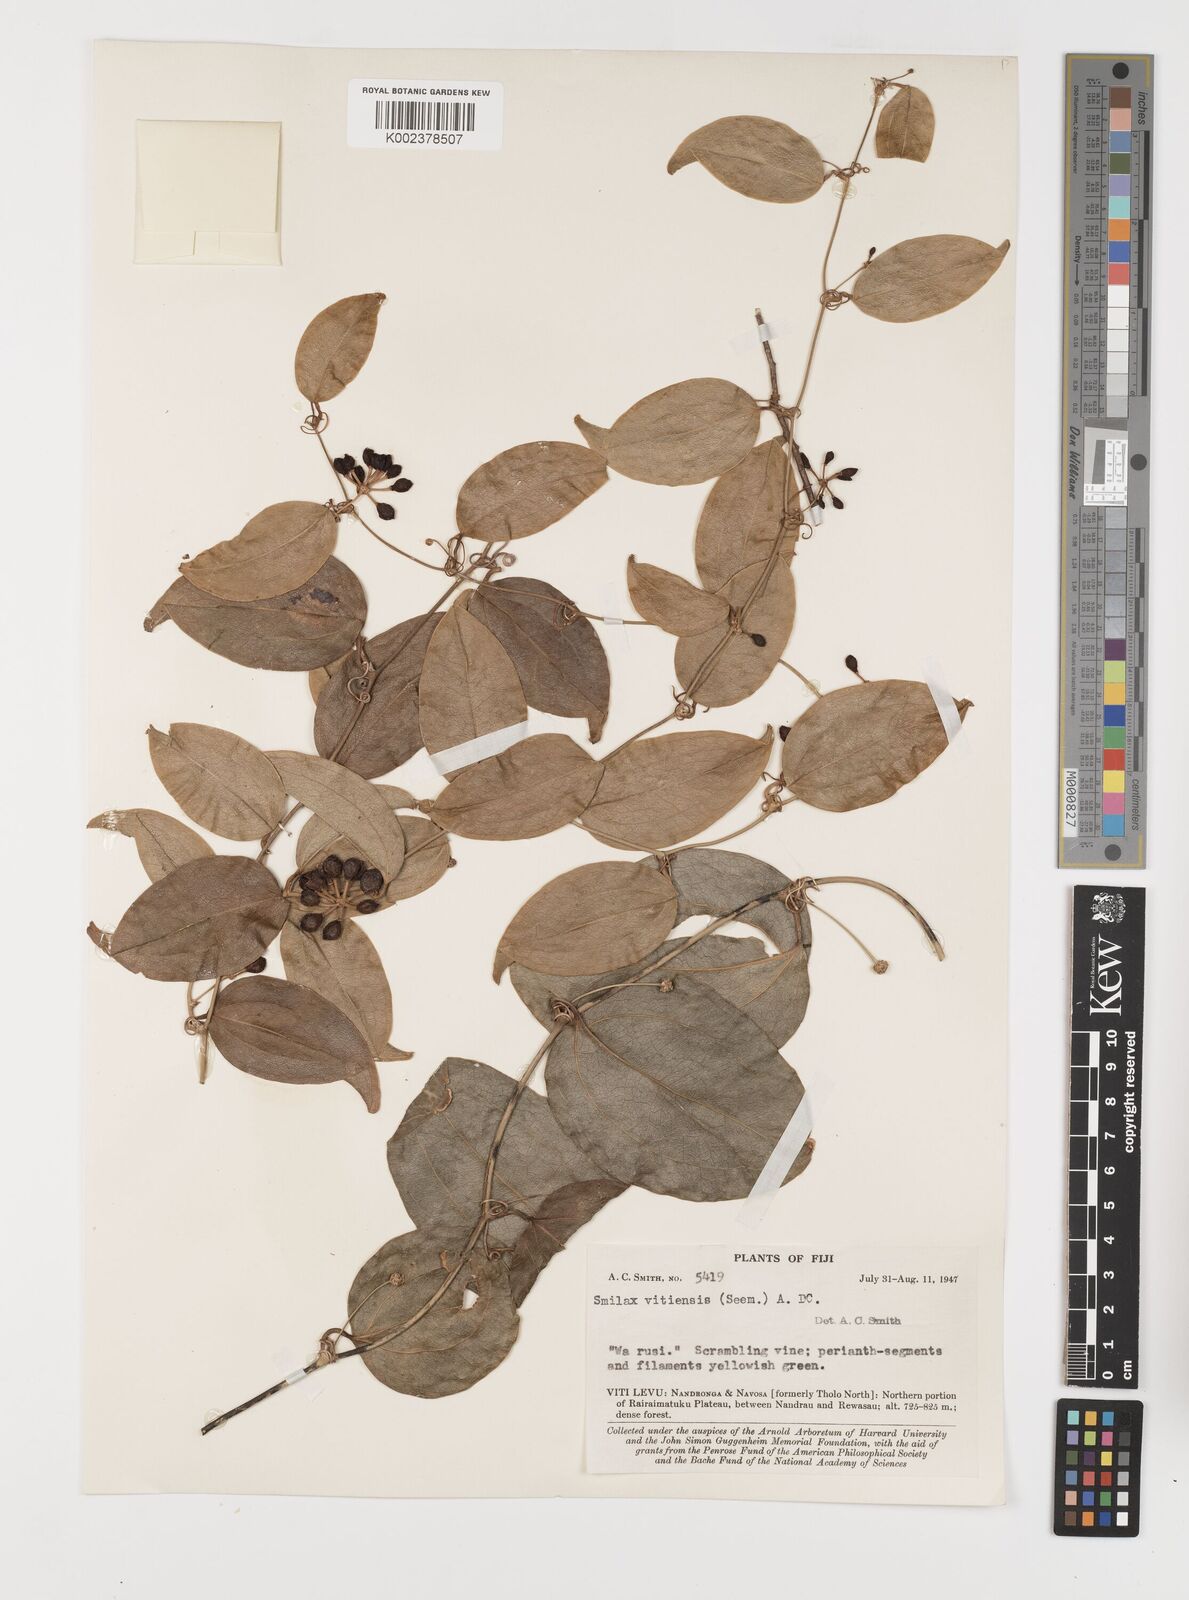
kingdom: Plantae
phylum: Tracheophyta
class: Liliopsida
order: Liliales
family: Smilacaceae
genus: Smilax
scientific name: Smilax vitiensis
